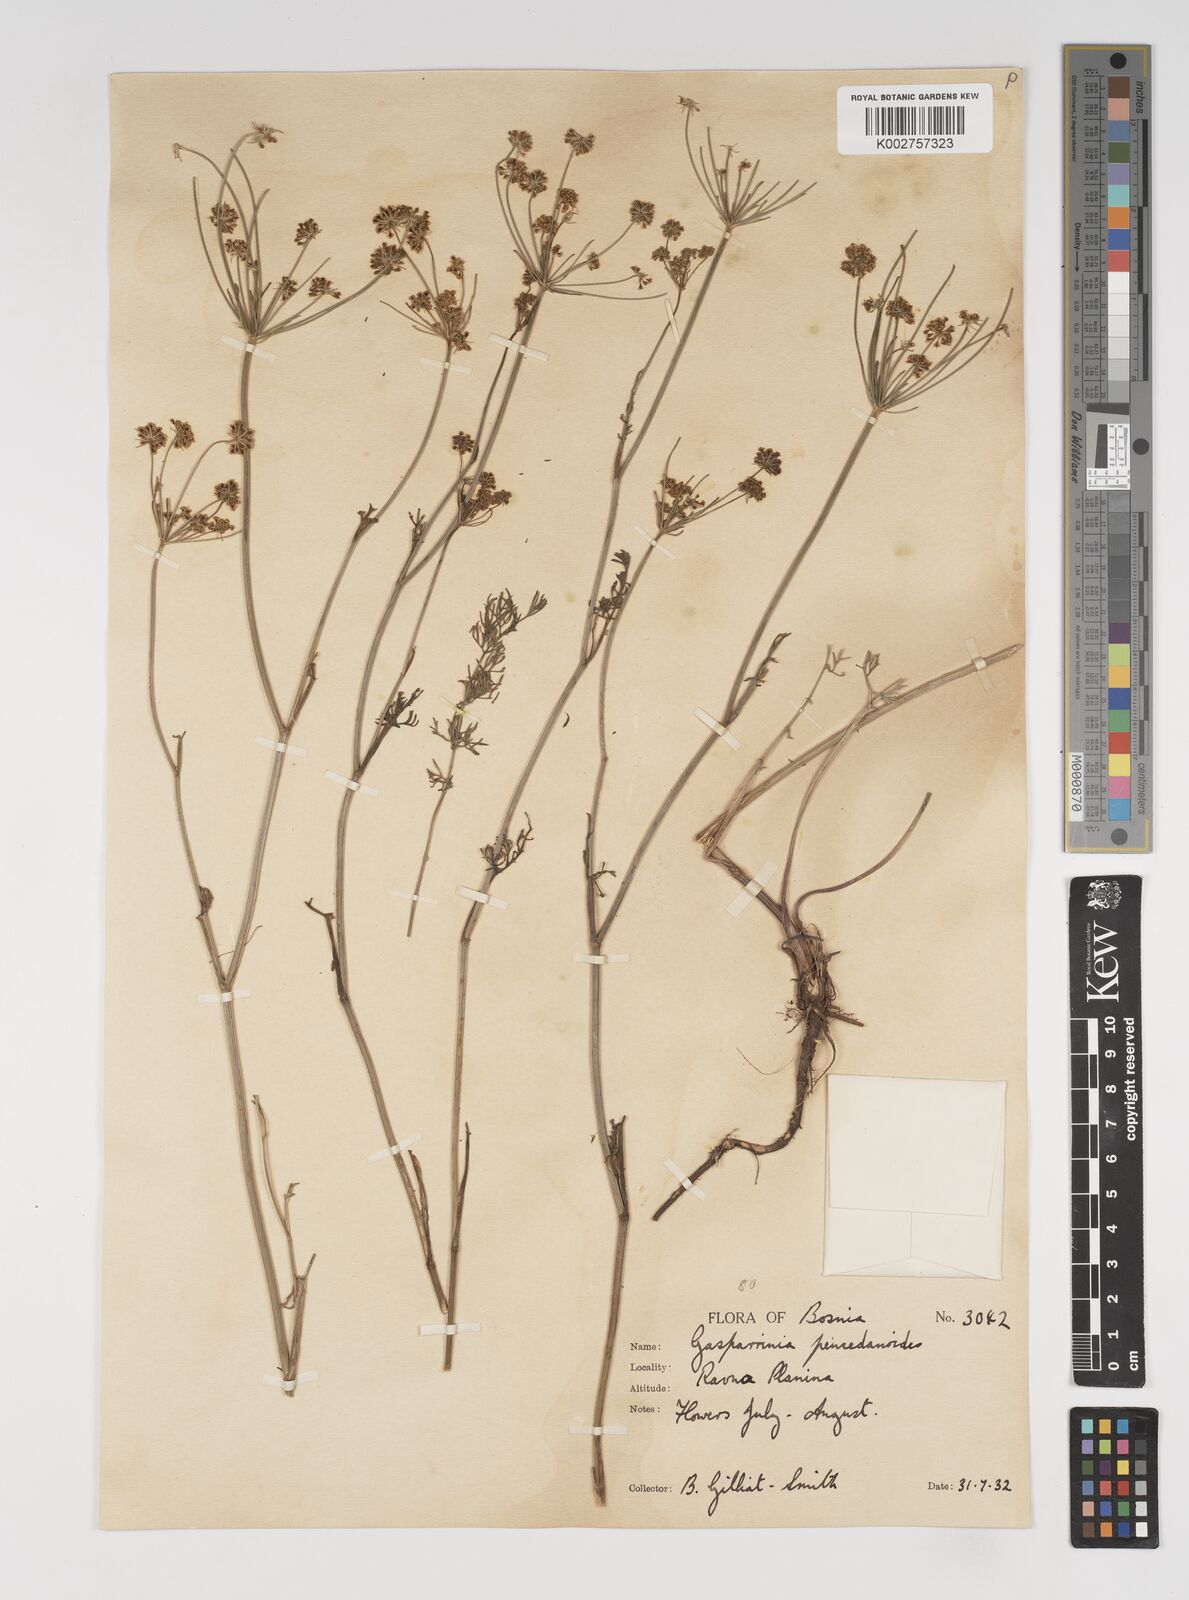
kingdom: Plantae
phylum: Tracheophyta
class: Magnoliopsida
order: Apiales
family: Apiaceae
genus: Gasparinia
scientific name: Gasparinia peucedanoides
